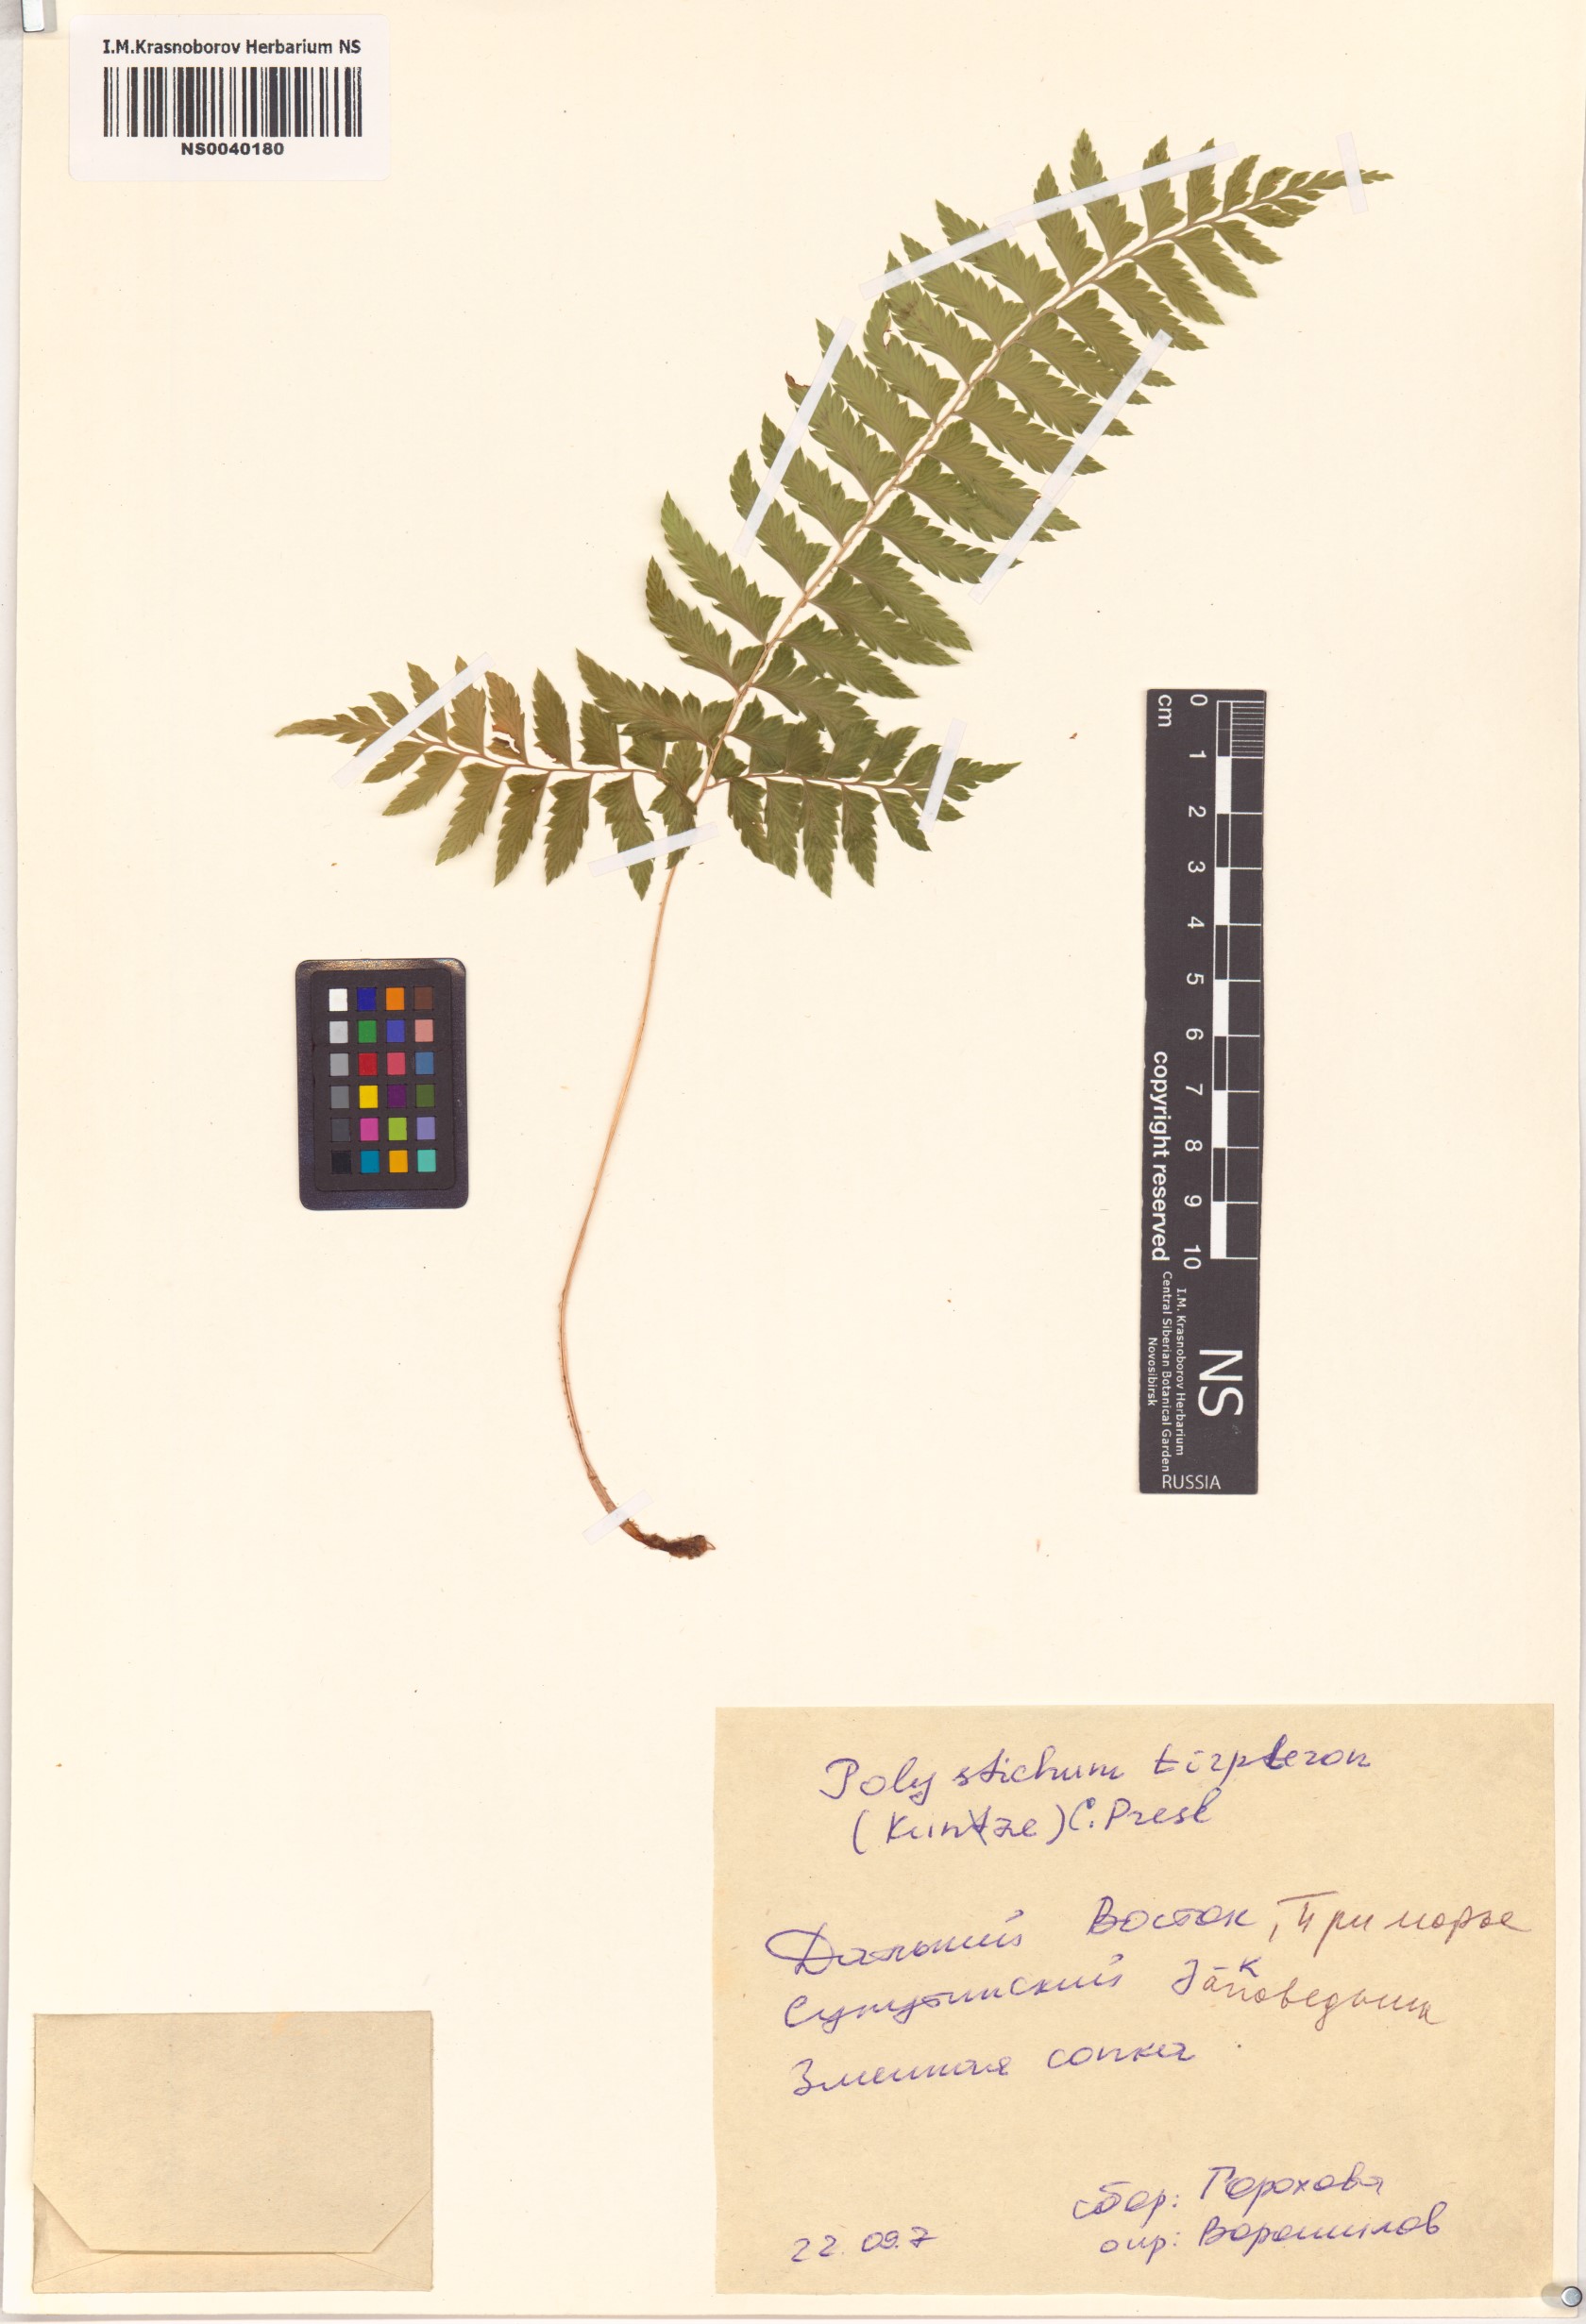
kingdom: Plantae
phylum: Tracheophyta
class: Polypodiopsida
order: Polypodiales
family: Dryopteridaceae
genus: Polystichum
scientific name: Polystichum tripteron
